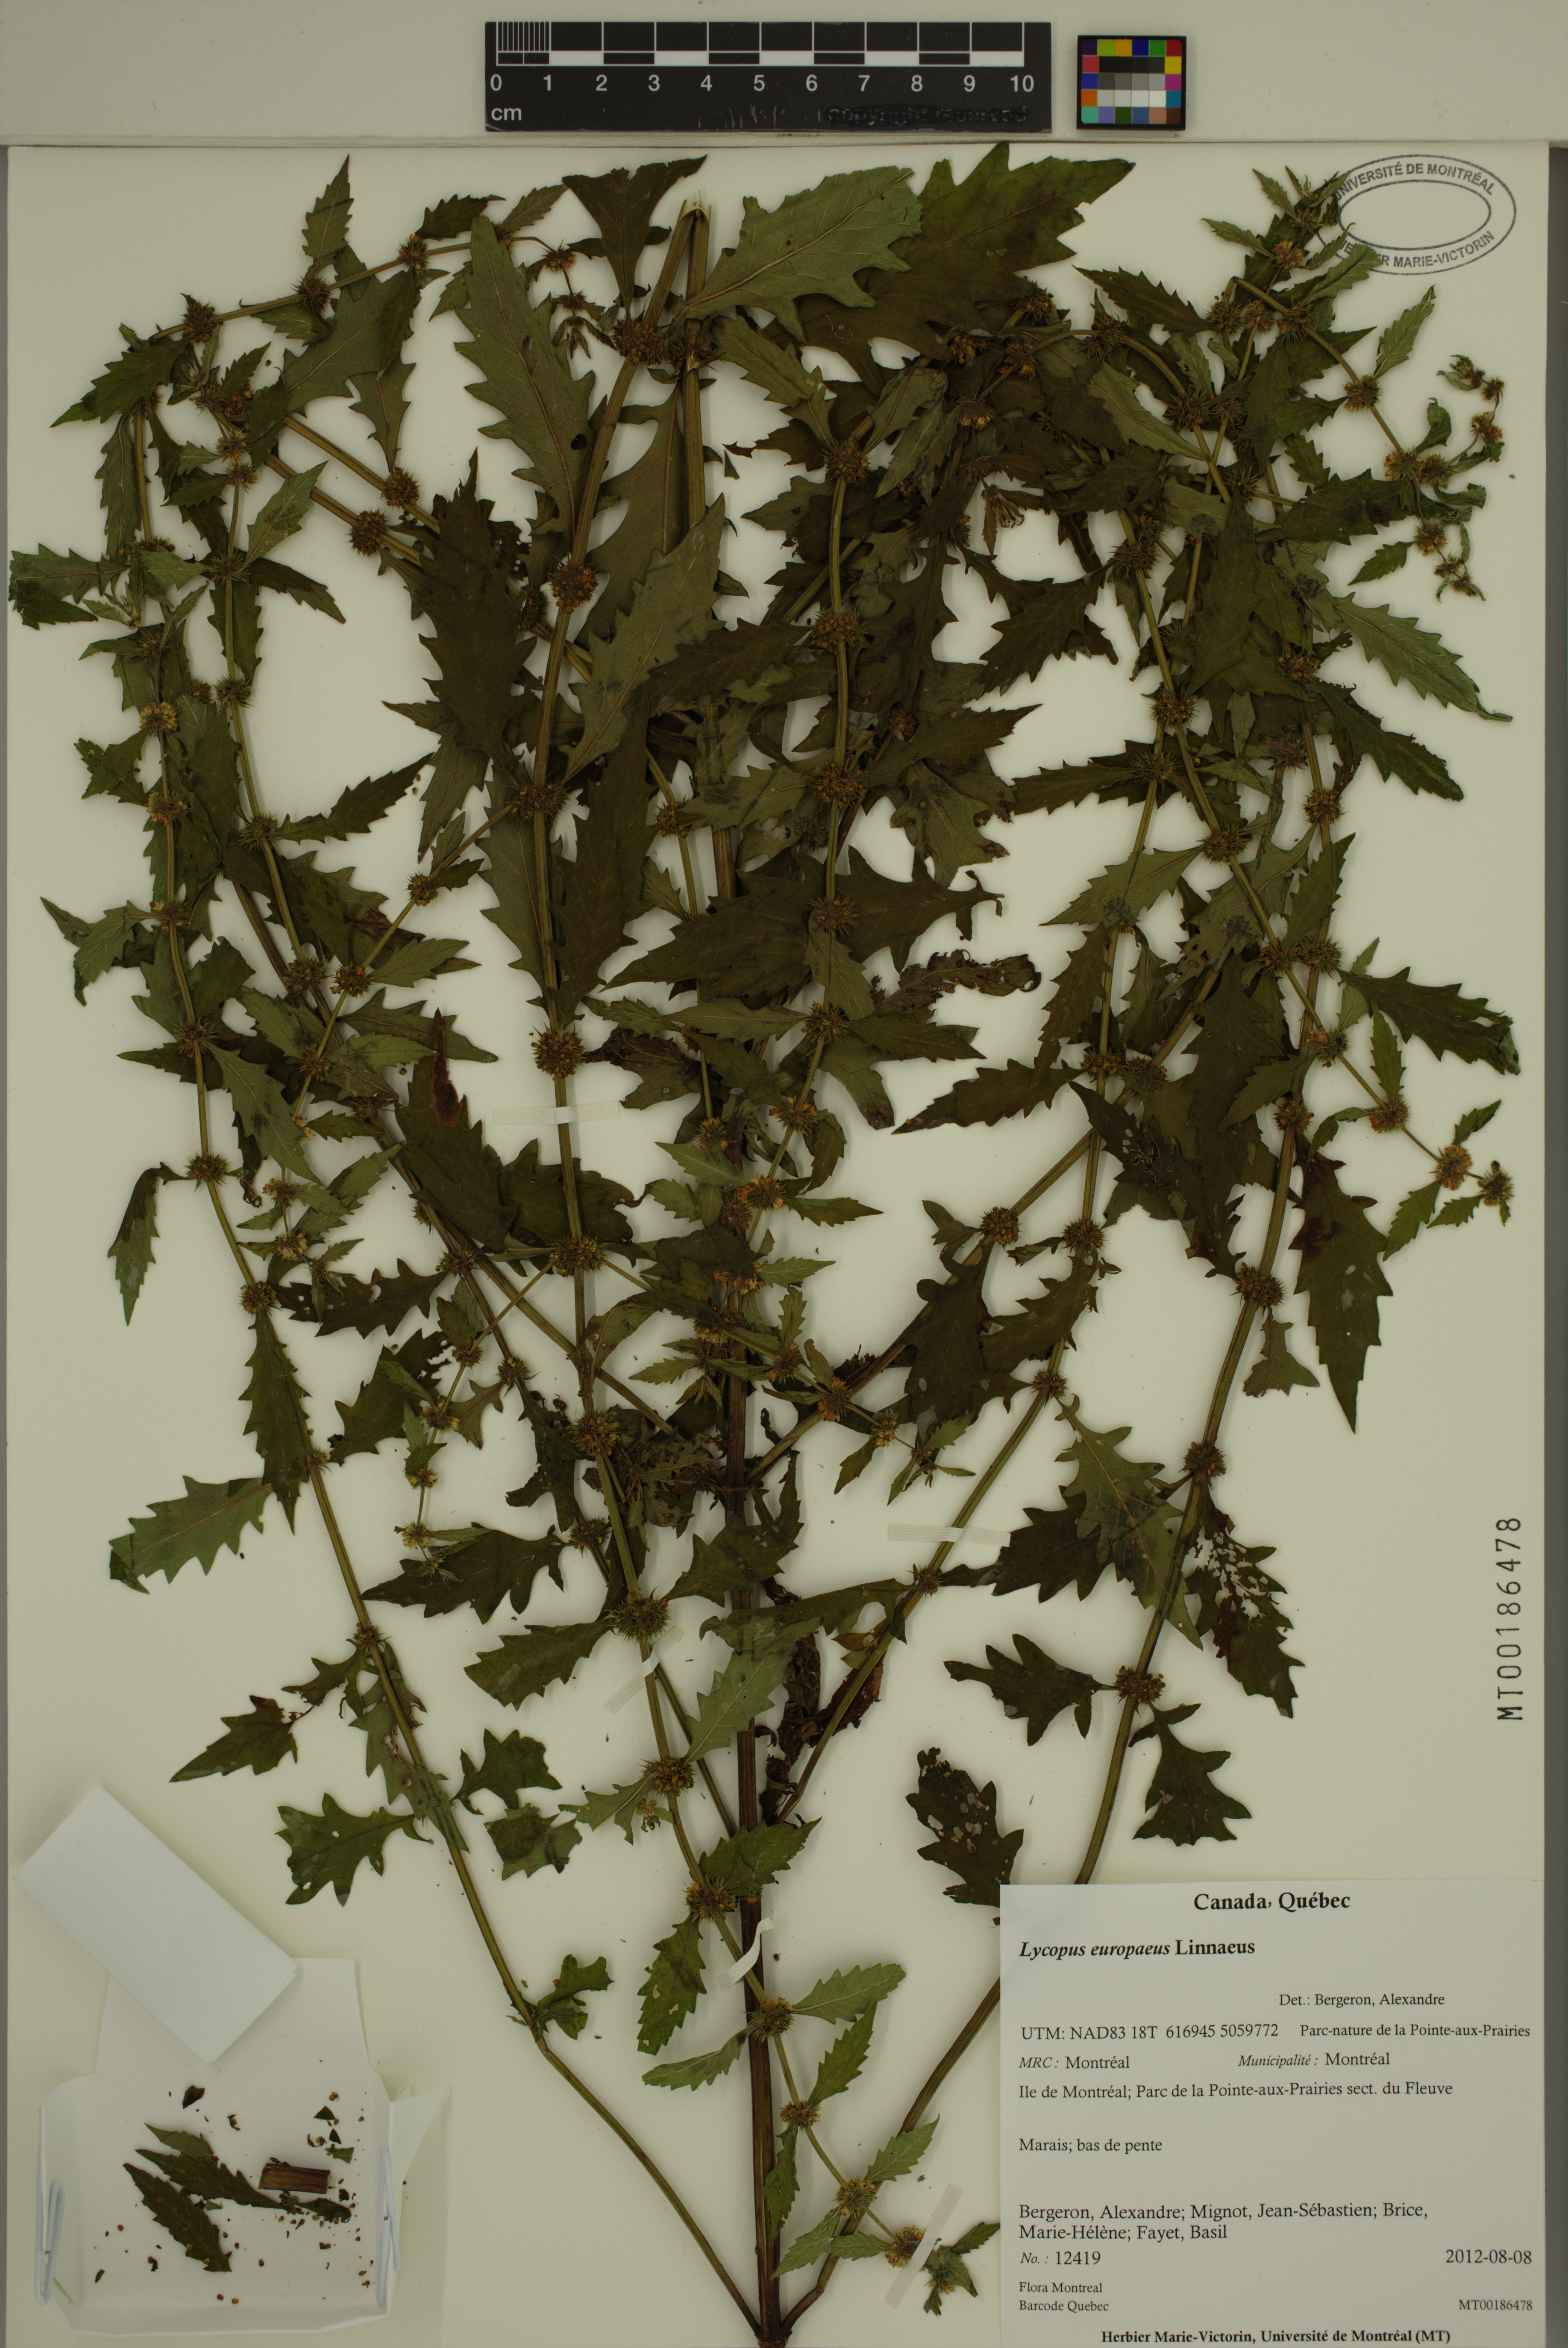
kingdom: Plantae
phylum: Tracheophyta
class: Magnoliopsida
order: Lamiales
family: Lamiaceae
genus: Lycopus
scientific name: Lycopus europaeus
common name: European bugleweed
